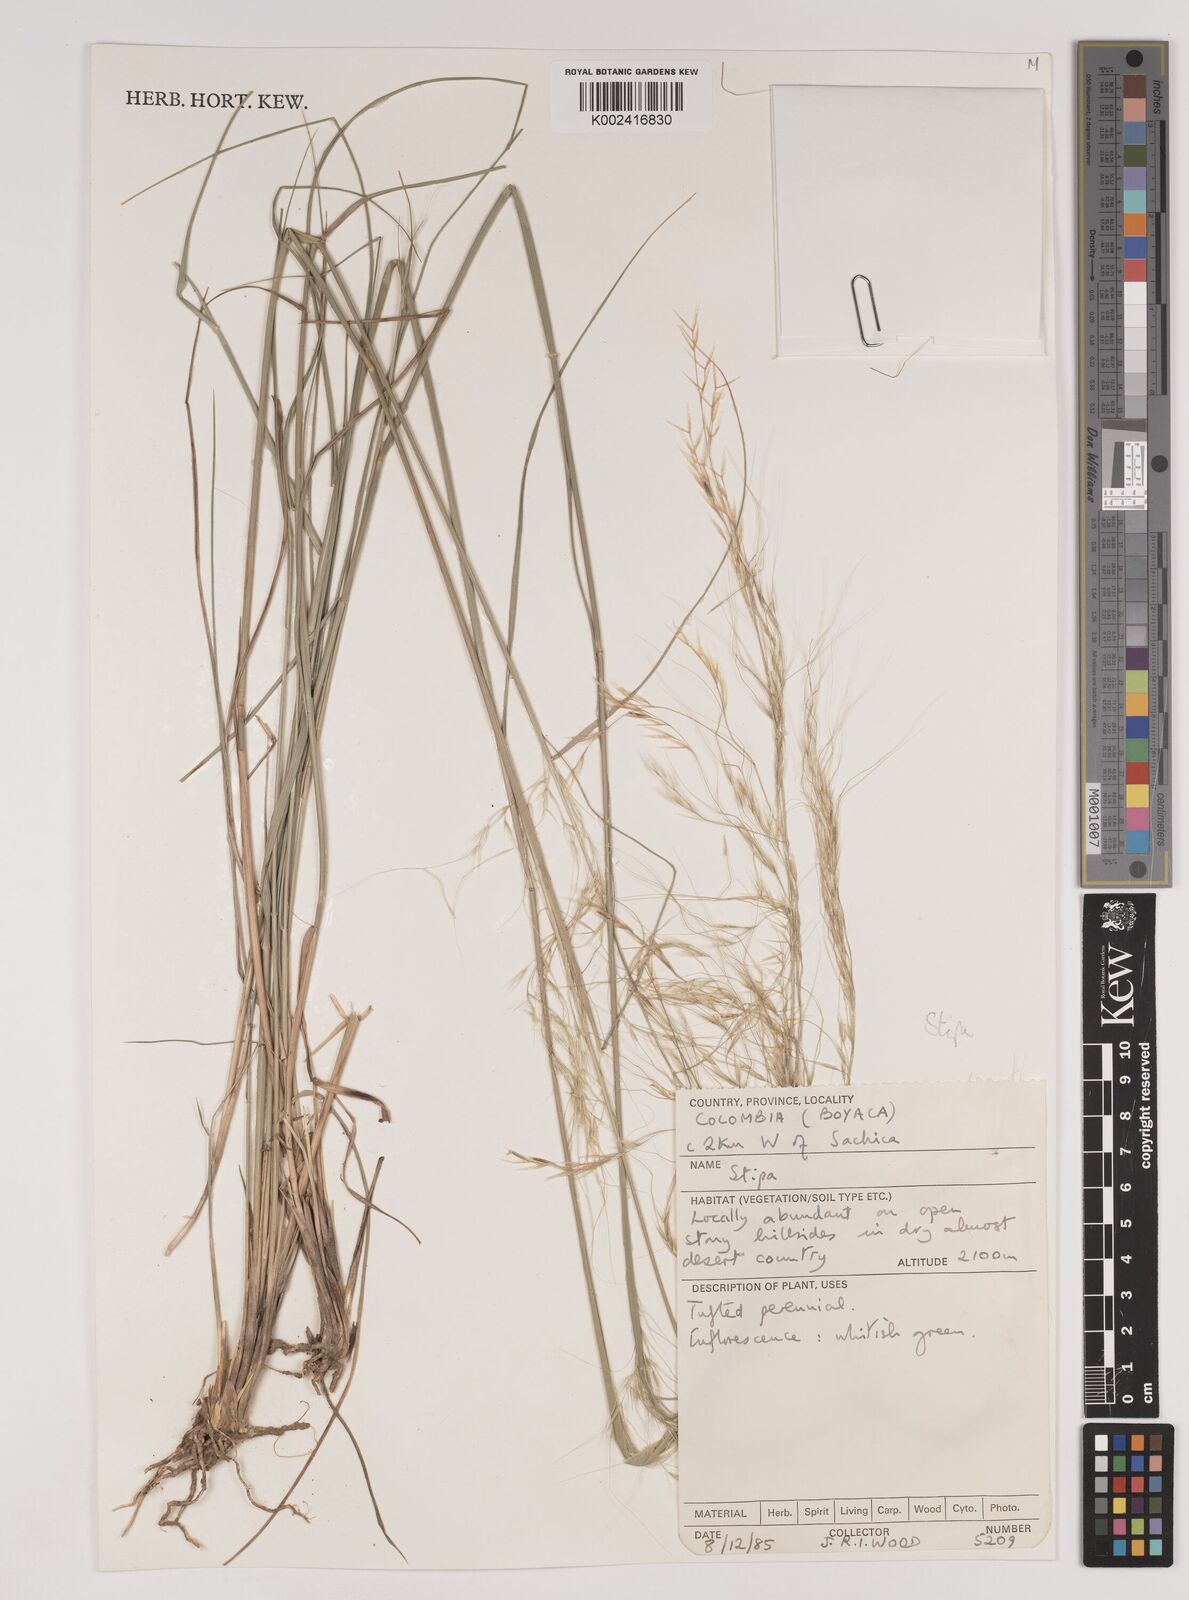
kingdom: Plantae
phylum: Tracheophyta
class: Liliopsida
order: Poales
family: Poaceae
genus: Stipa
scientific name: Stipa
